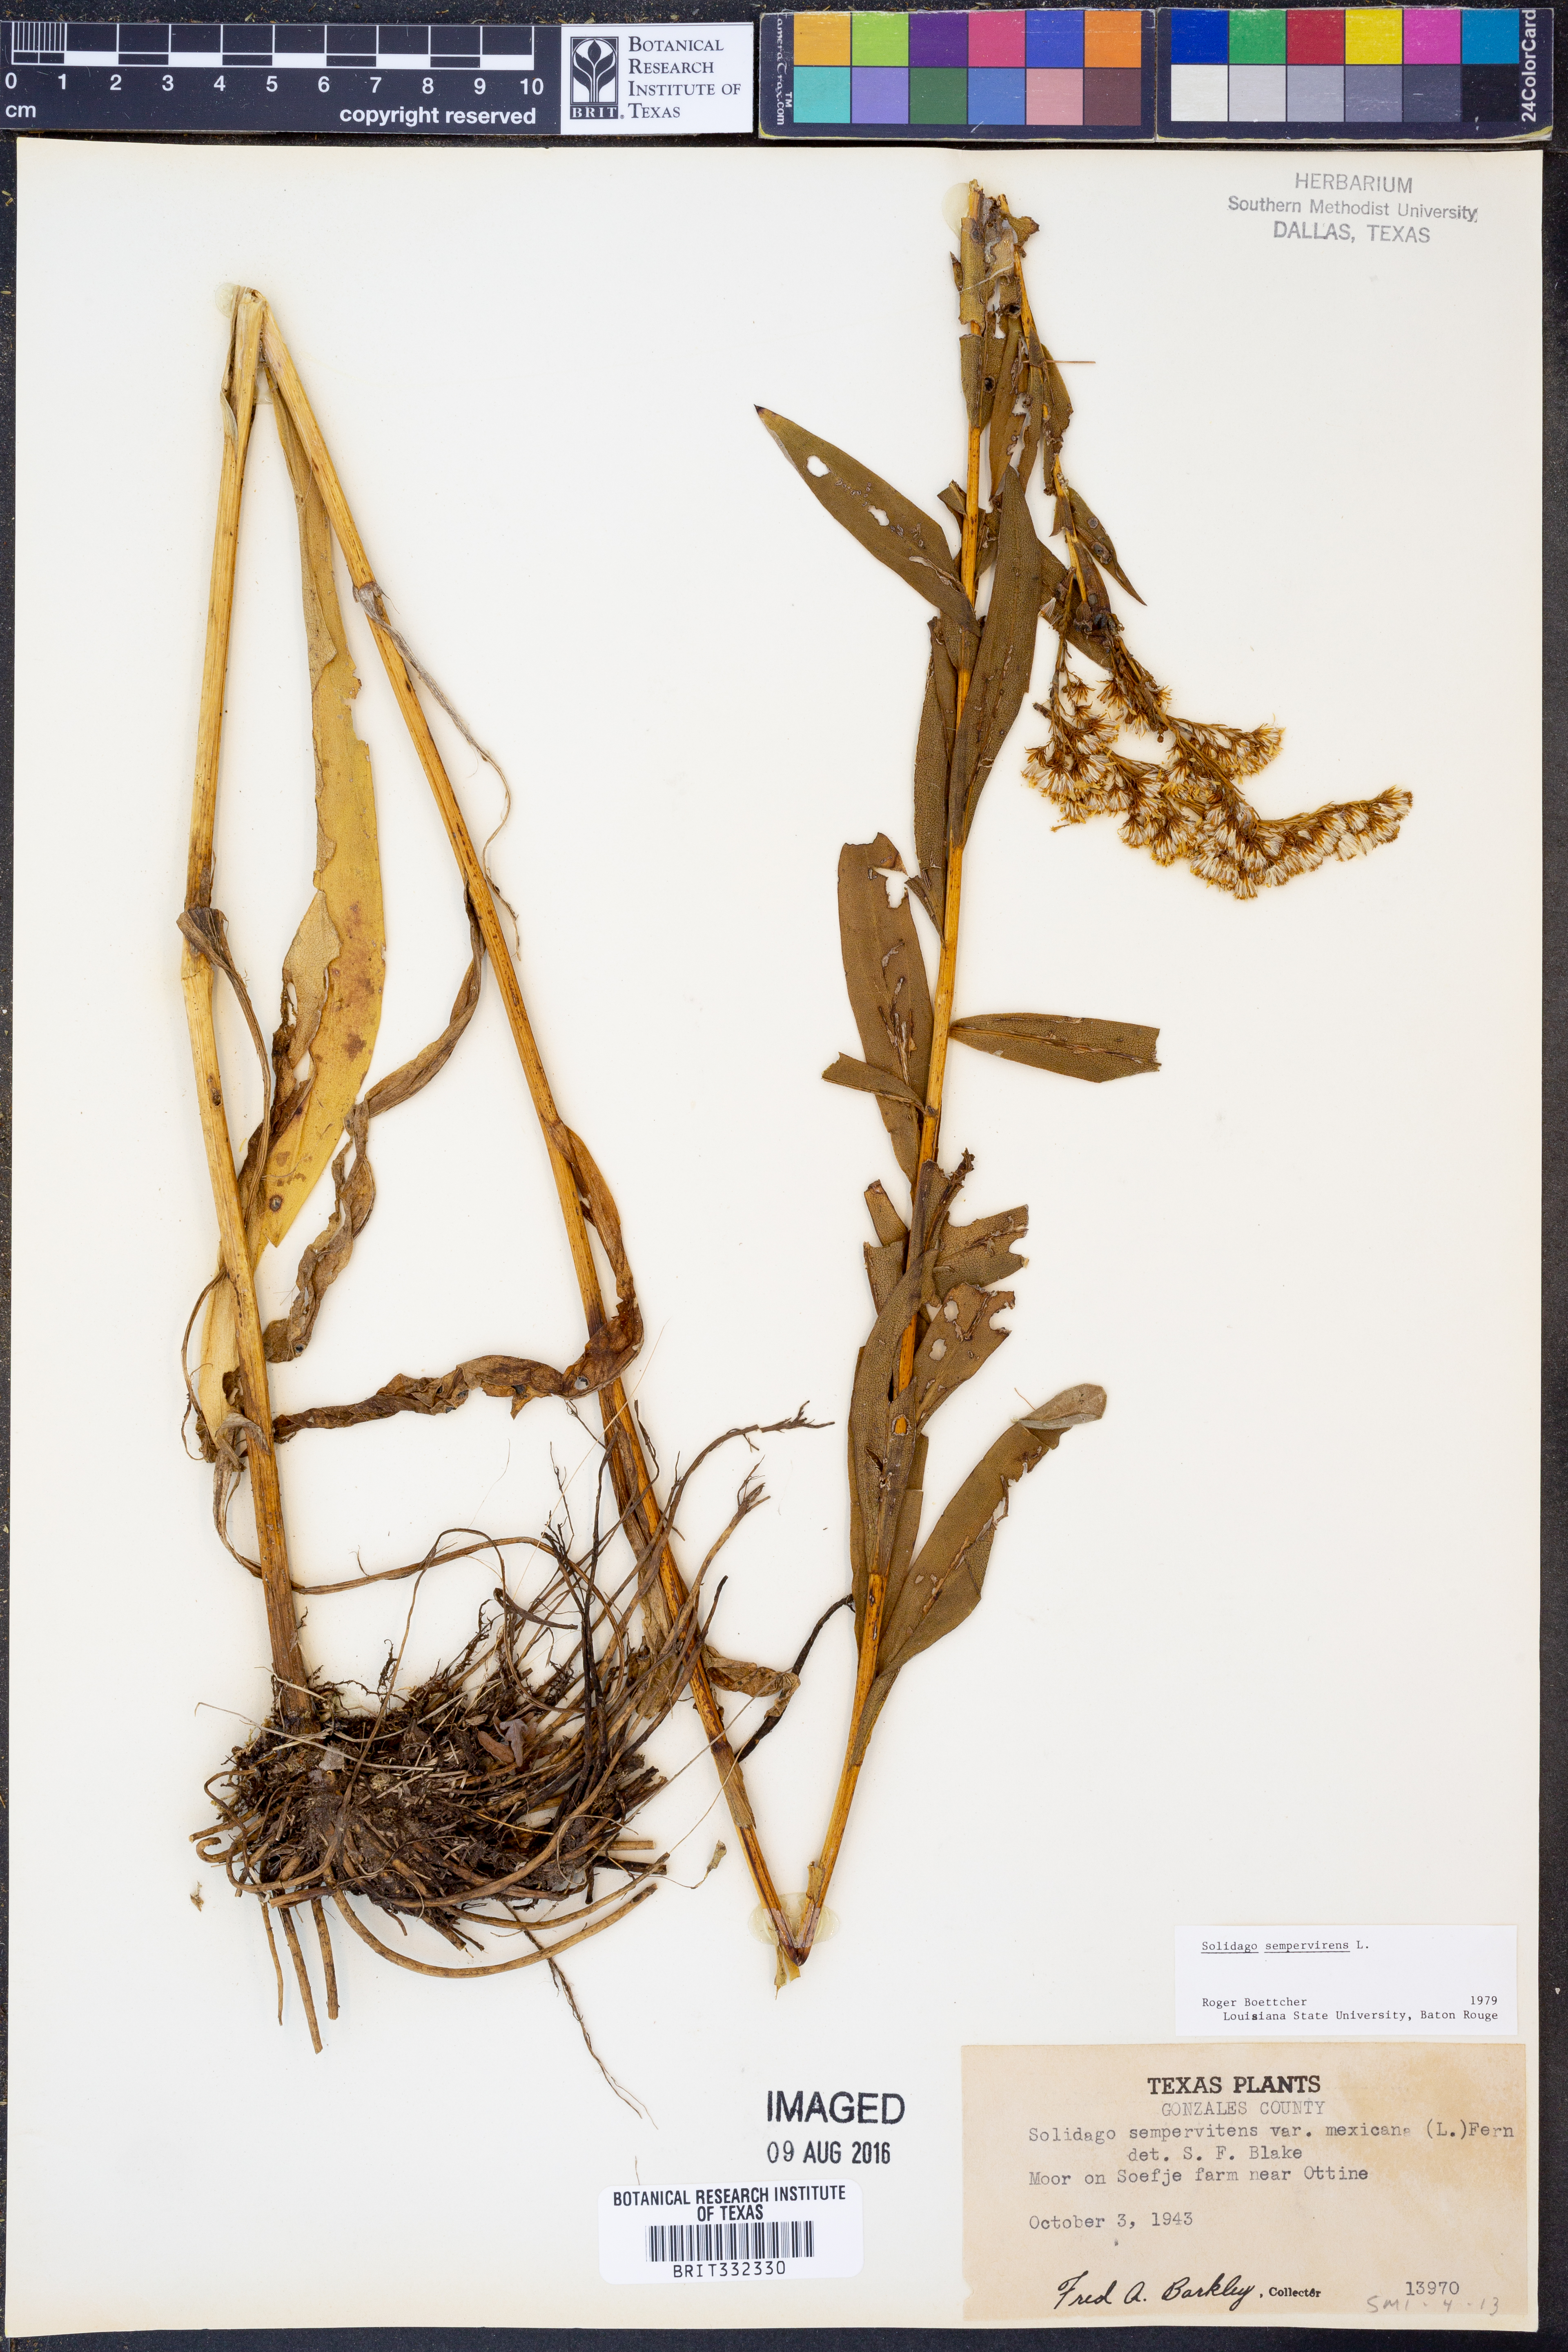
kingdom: Plantae
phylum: Tracheophyta
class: Magnoliopsida
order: Asterales
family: Asteraceae
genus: Solidago
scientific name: Solidago sempervirens
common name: Salt-marsh goldenrod
